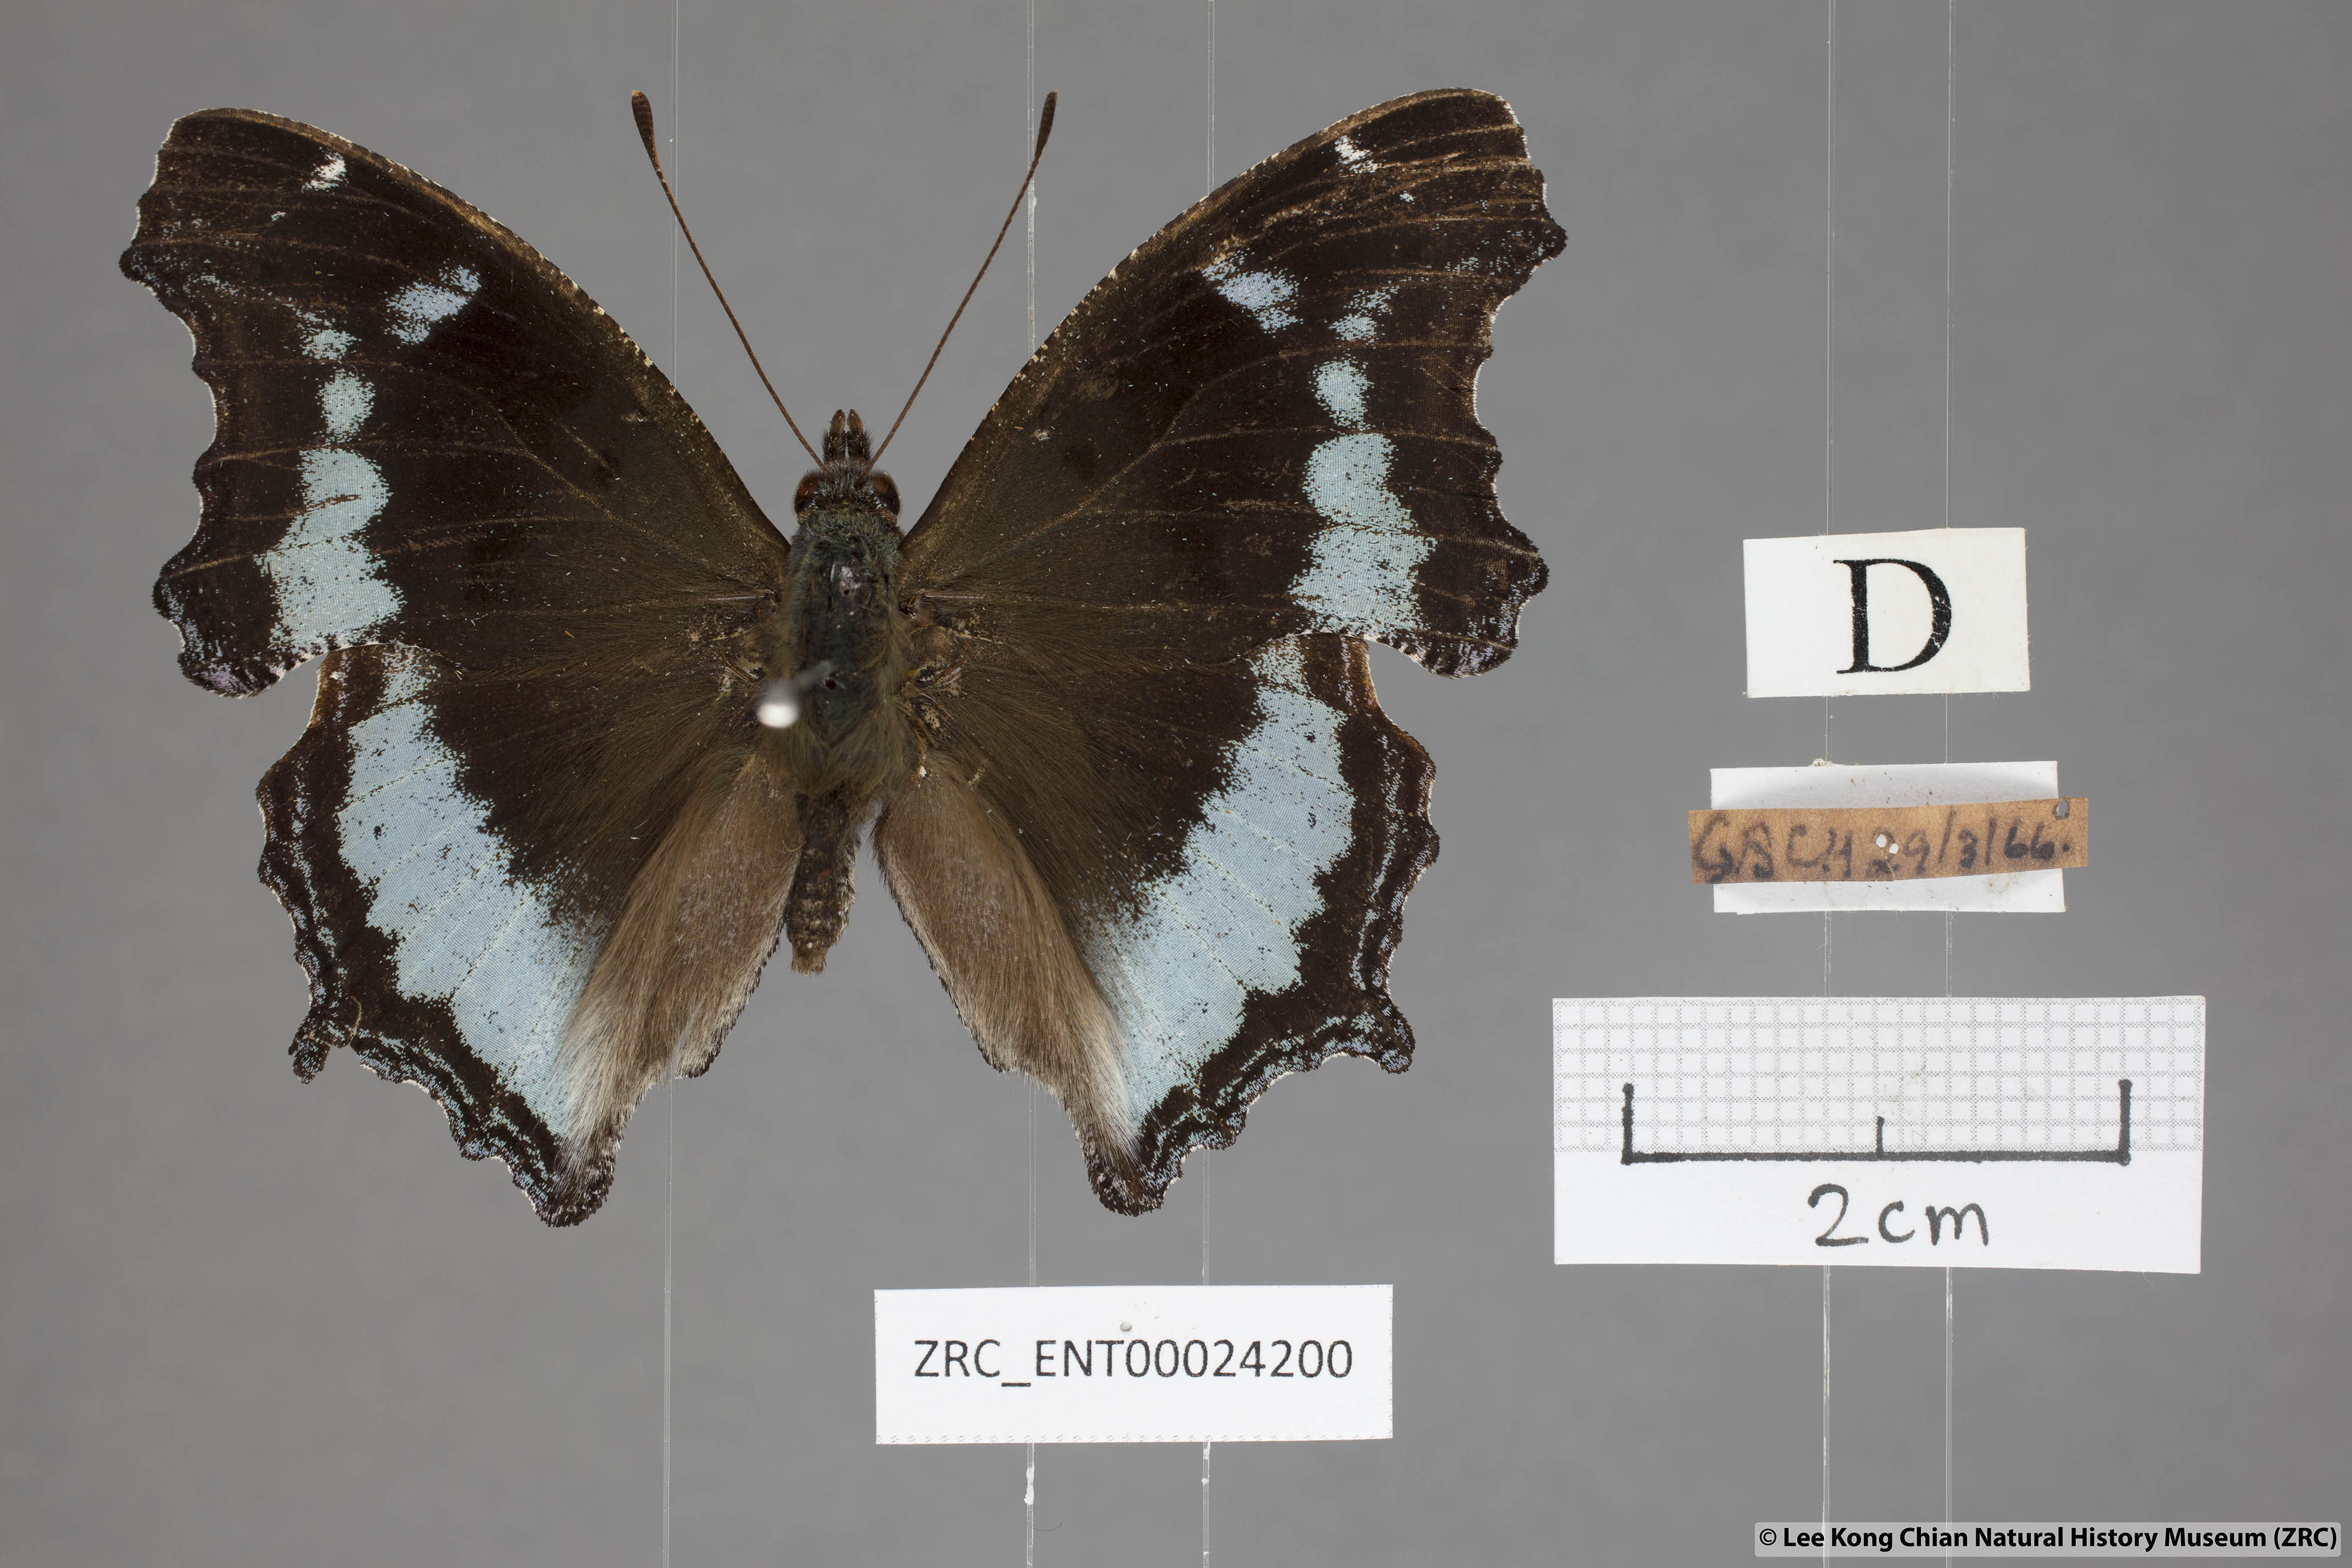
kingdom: Animalia
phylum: Arthropoda
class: Insecta
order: Lepidoptera
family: Nymphalidae
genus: Vanessa
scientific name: Vanessa Kaniska canace
